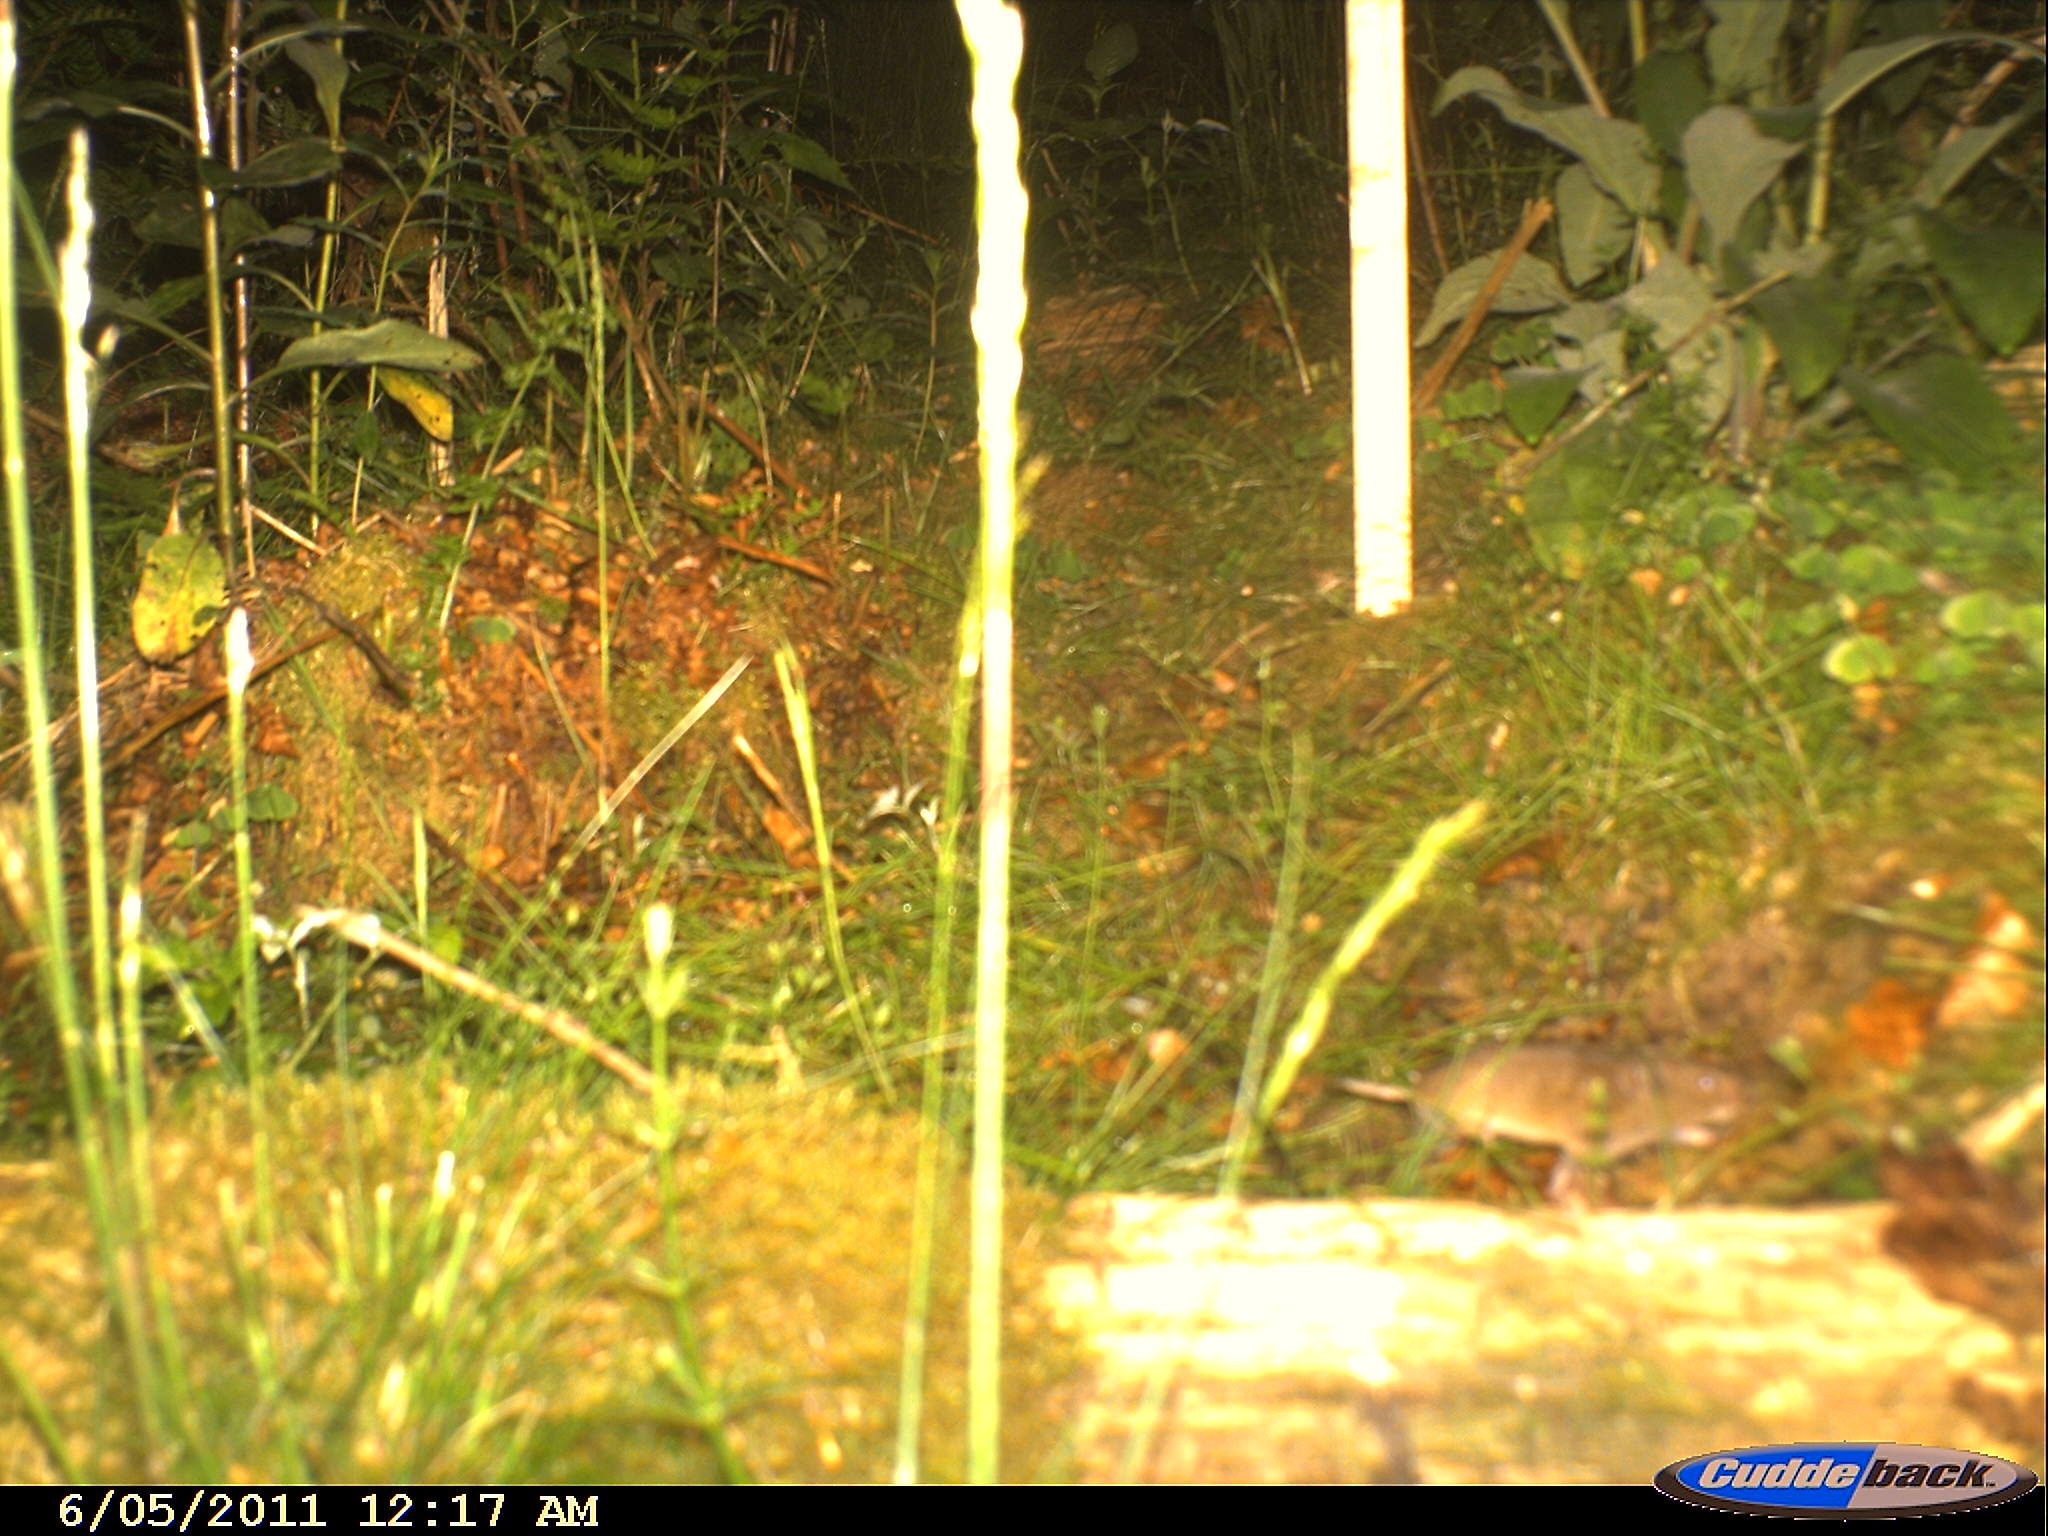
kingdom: Animalia
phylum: Chordata
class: Mammalia
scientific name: Mammalia
